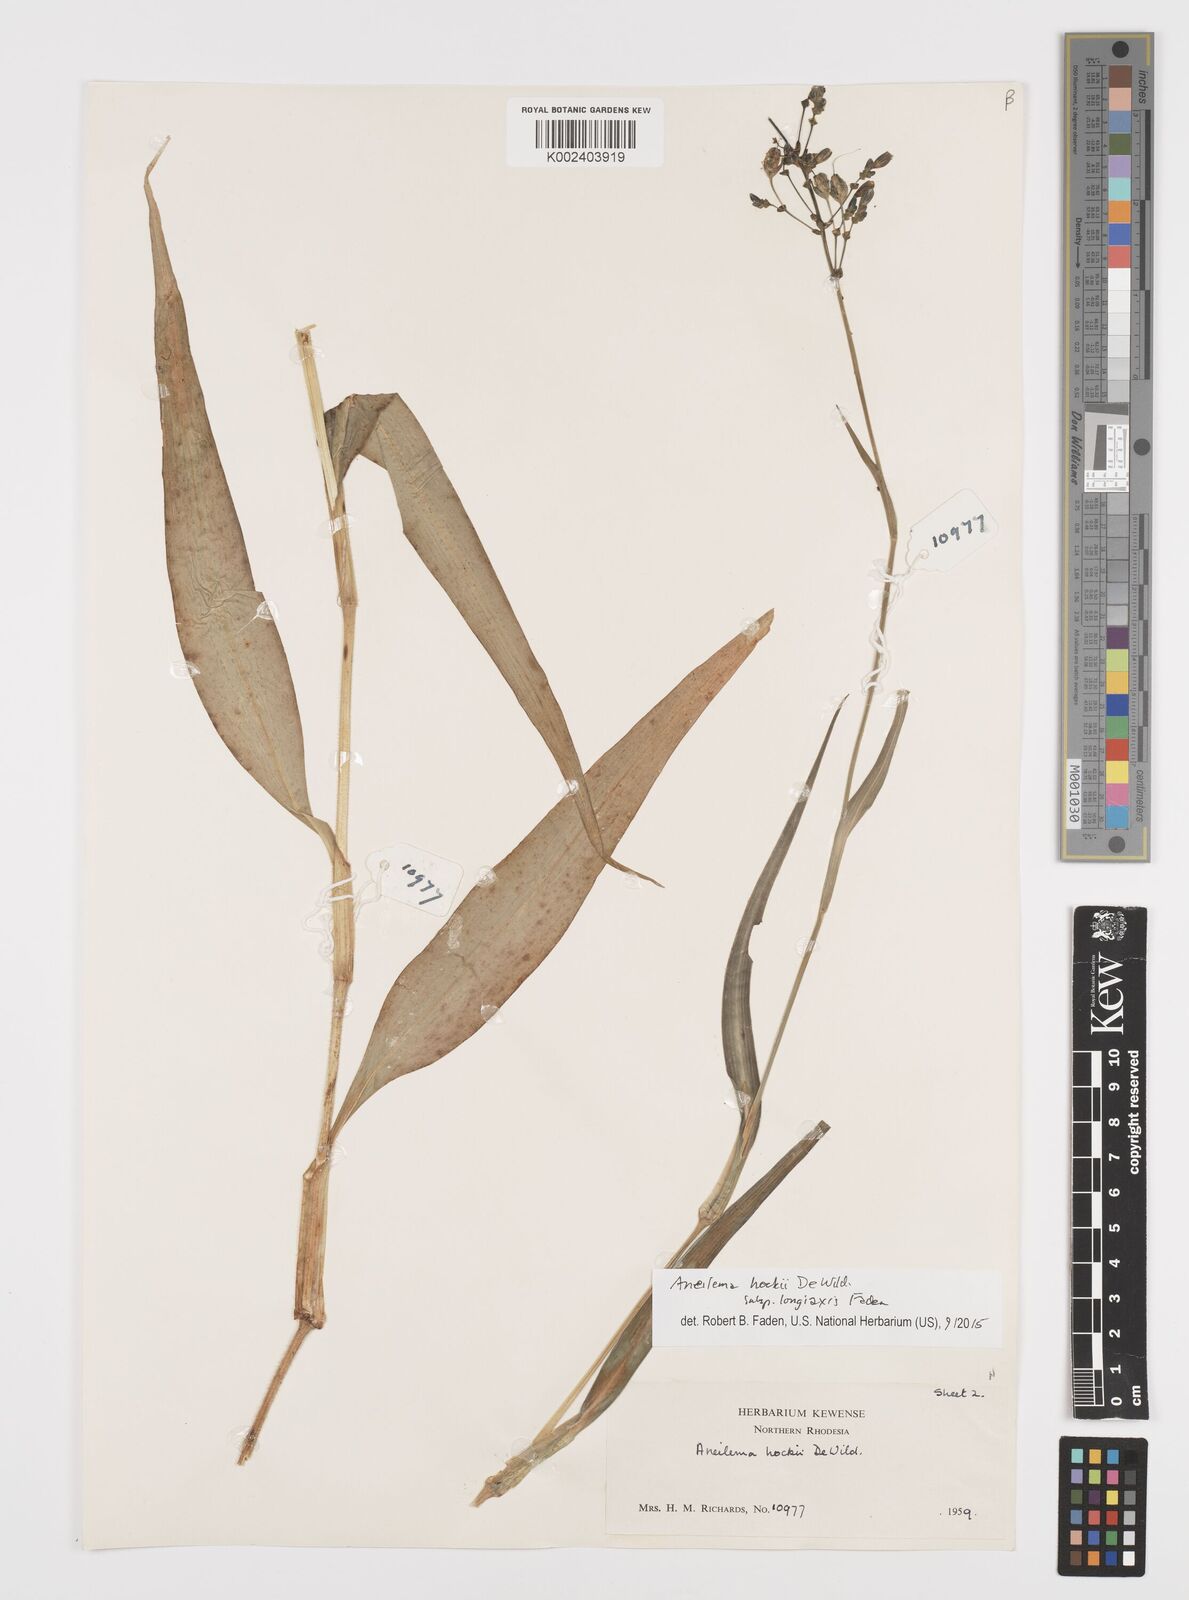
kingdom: Plantae
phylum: Tracheophyta
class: Liliopsida
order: Commelinales
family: Commelinaceae
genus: Aneilema
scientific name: Aneilema hockii
